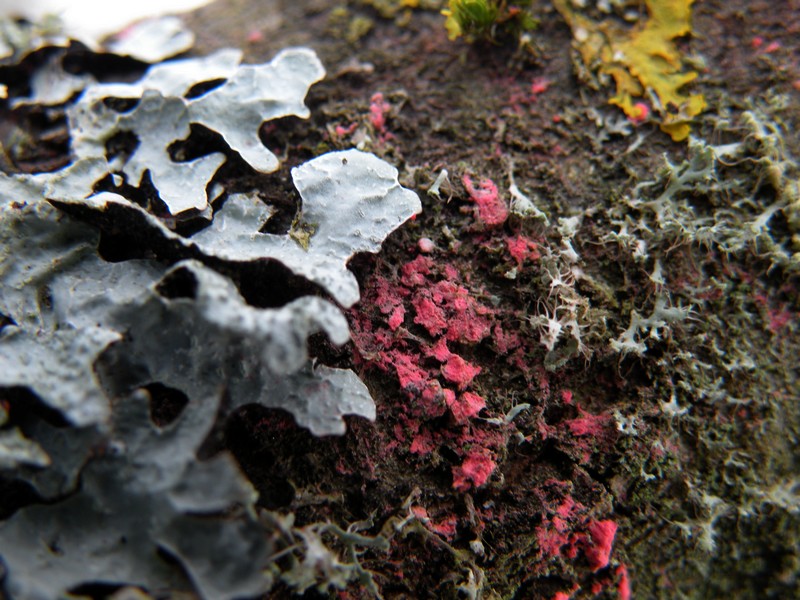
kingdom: Fungi
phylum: Ascomycota
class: Sordariomycetes
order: Hypocreales
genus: Illosporiopsis
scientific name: Illosporiopsis christiansenii
